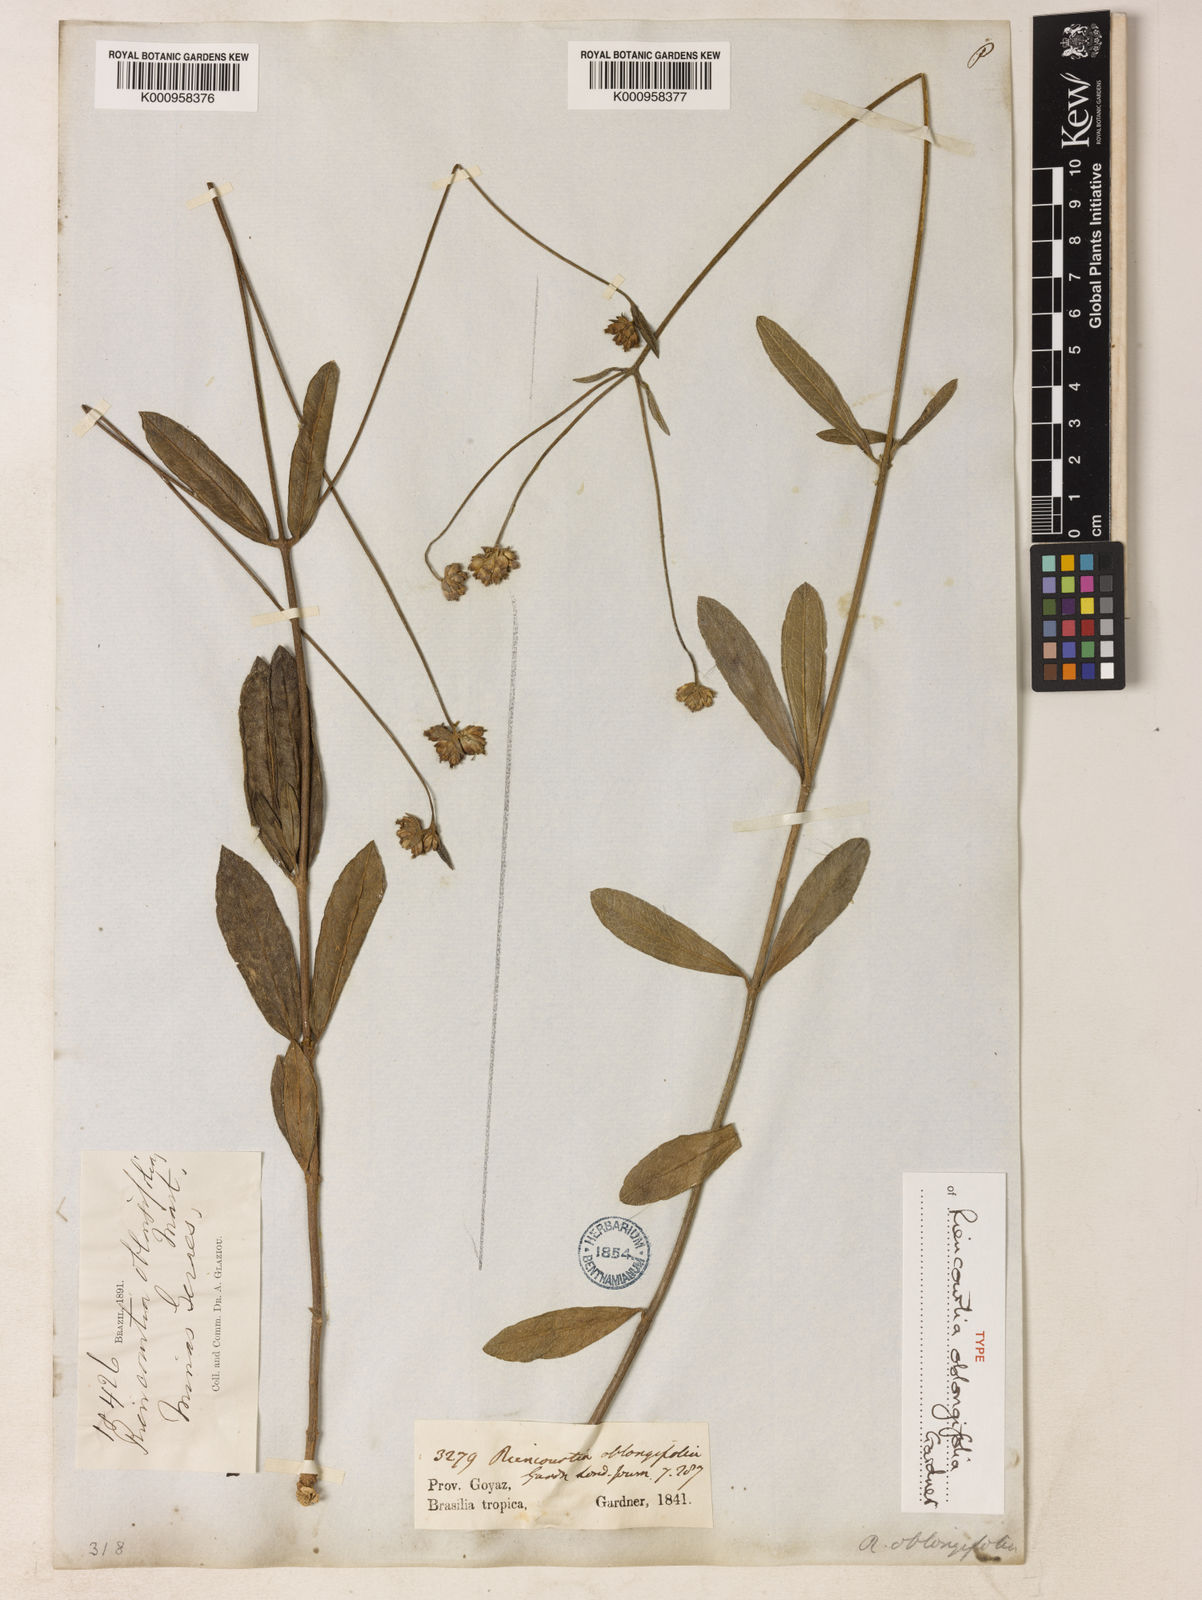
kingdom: Plantae
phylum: Tracheophyta
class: Magnoliopsida
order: Asterales
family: Asteraceae
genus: Riencourtia
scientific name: Riencourtia
